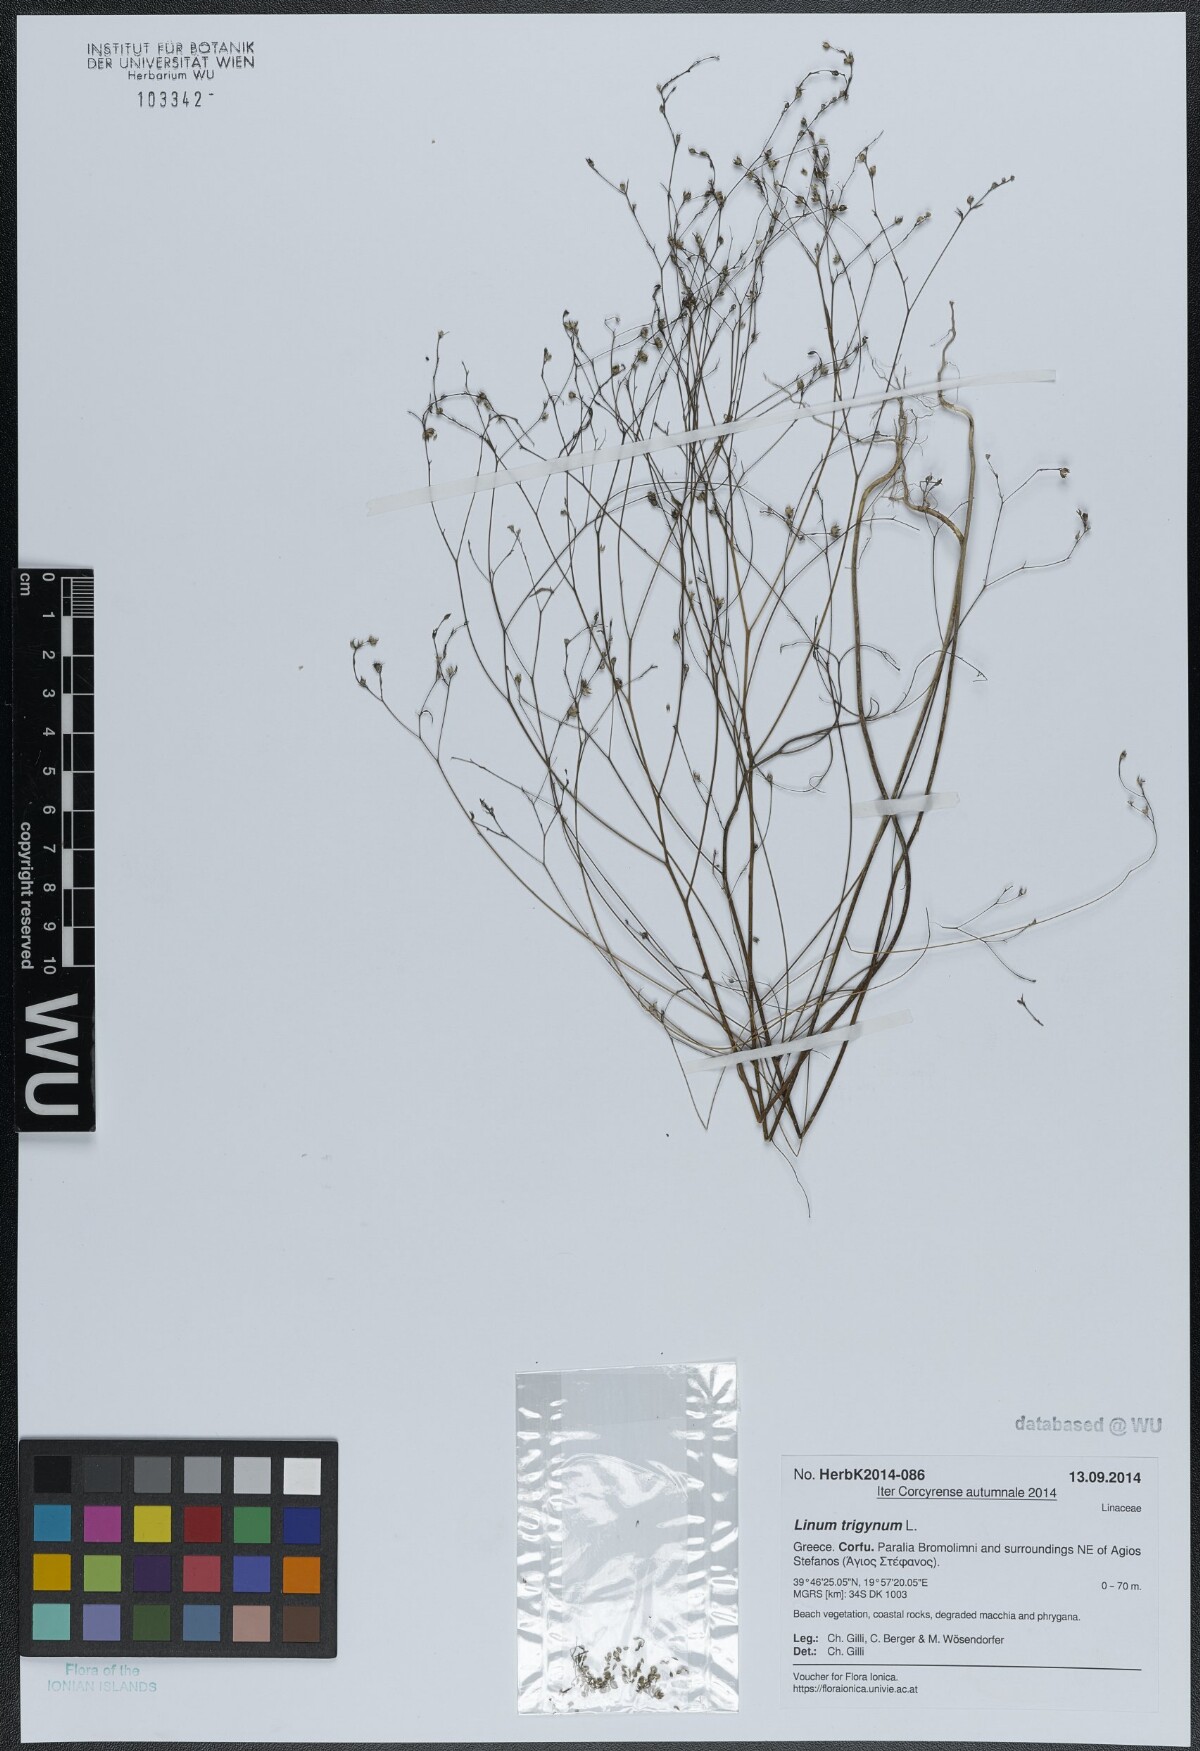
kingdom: Plantae
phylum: Tracheophyta
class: Magnoliopsida
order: Malpighiales
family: Linaceae
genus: Linum
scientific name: Linum trigynum
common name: French flax
